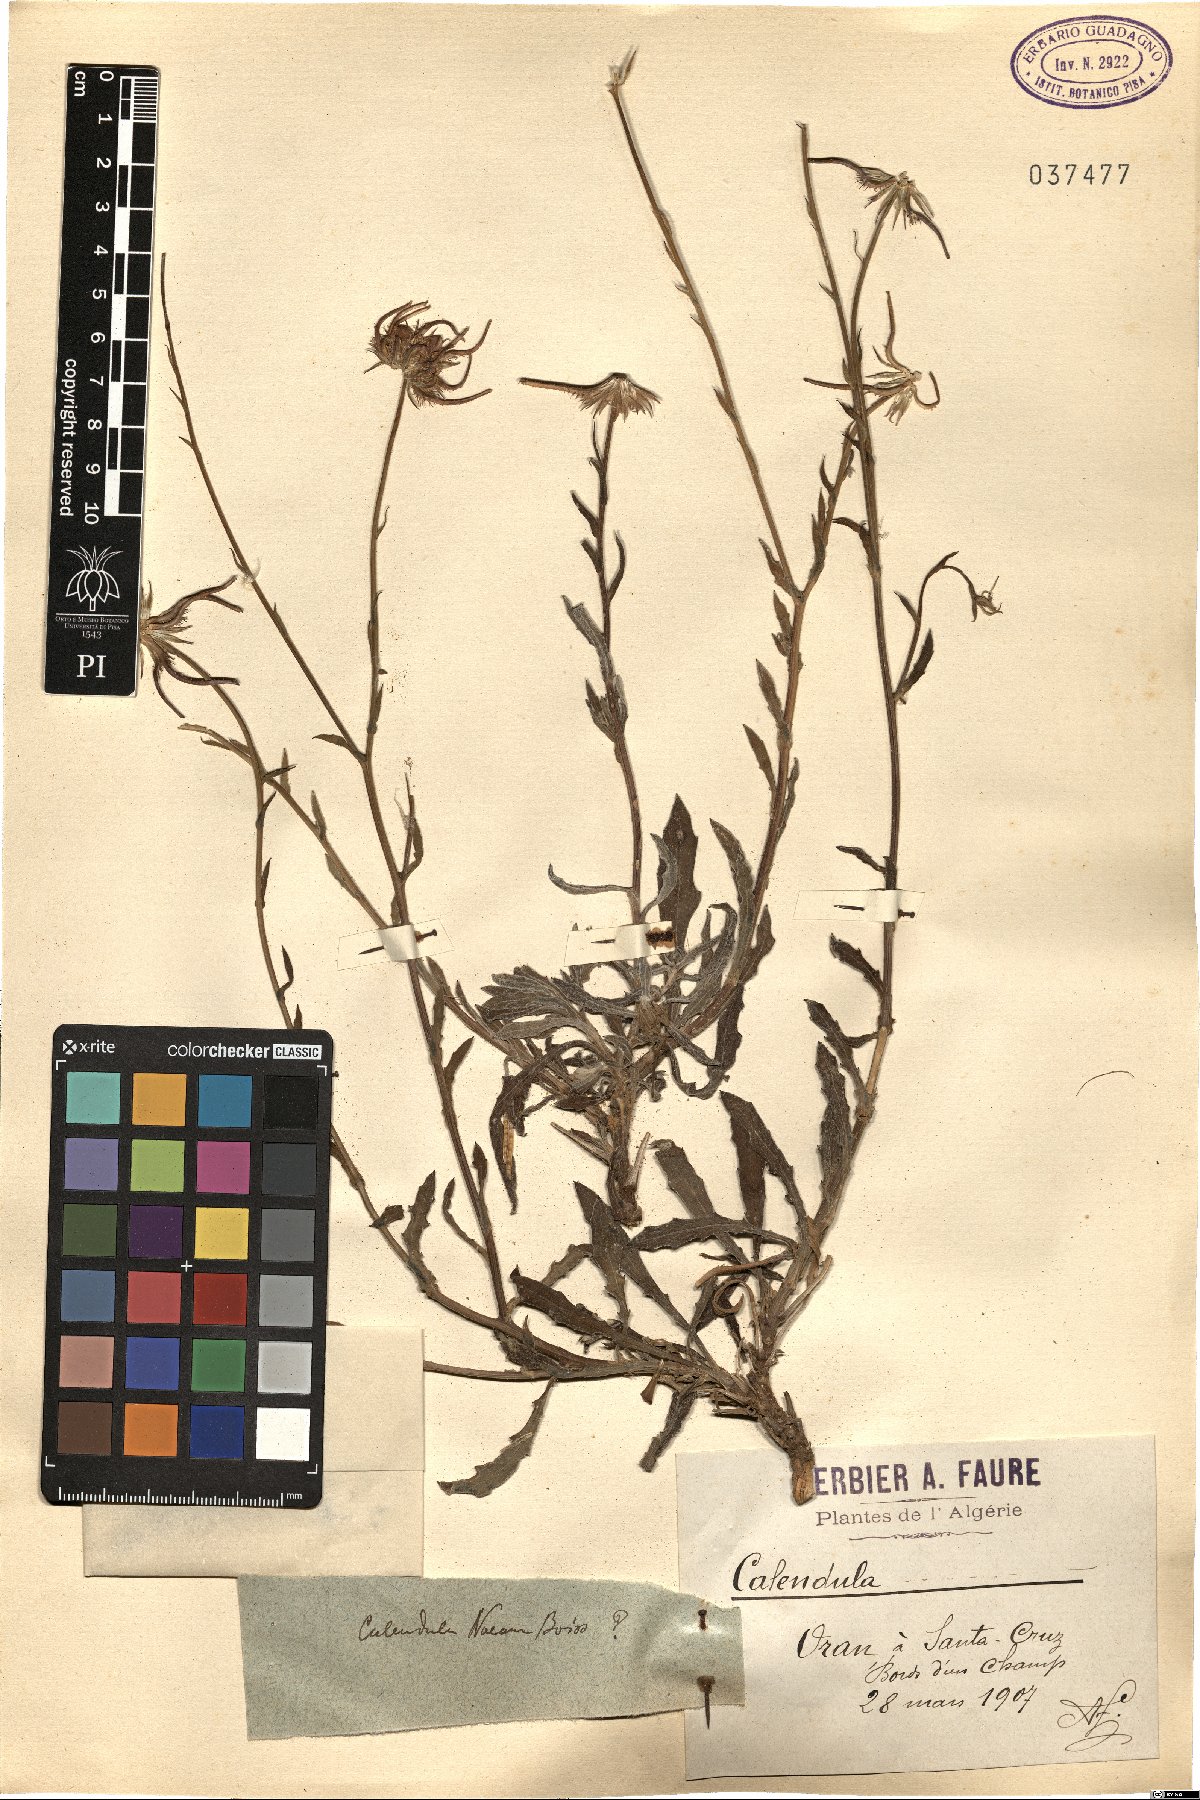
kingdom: Plantae
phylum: Tracheophyta
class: Magnoliopsida
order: Asterales
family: Asteraceae
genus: Calendula
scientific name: Calendula suffruticosa
